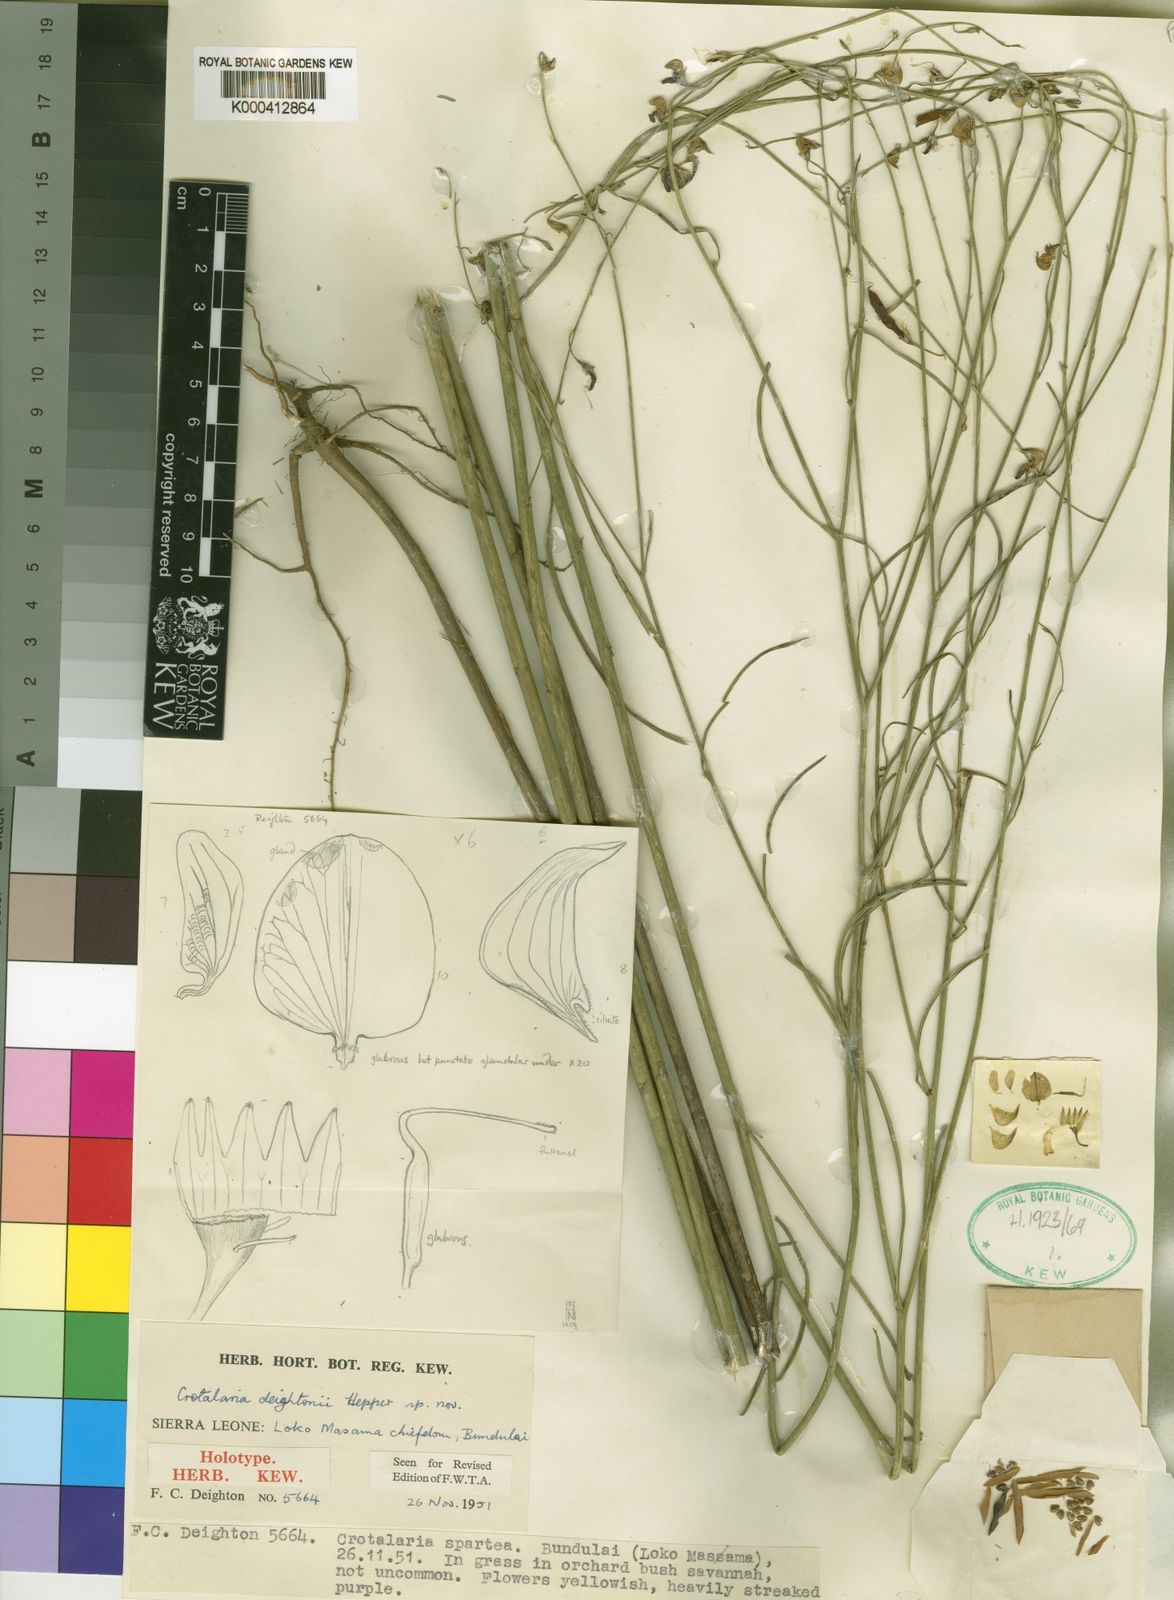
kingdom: Plantae
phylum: Tracheophyta
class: Magnoliopsida
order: Fabales
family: Fabaceae
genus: Crotalaria
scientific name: Crotalaria deightonii
